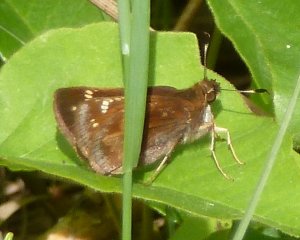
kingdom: Animalia
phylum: Arthropoda
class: Insecta
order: Lepidoptera
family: Hesperiidae
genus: Lon
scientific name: Lon hobomok
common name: Hobomok Skipper
